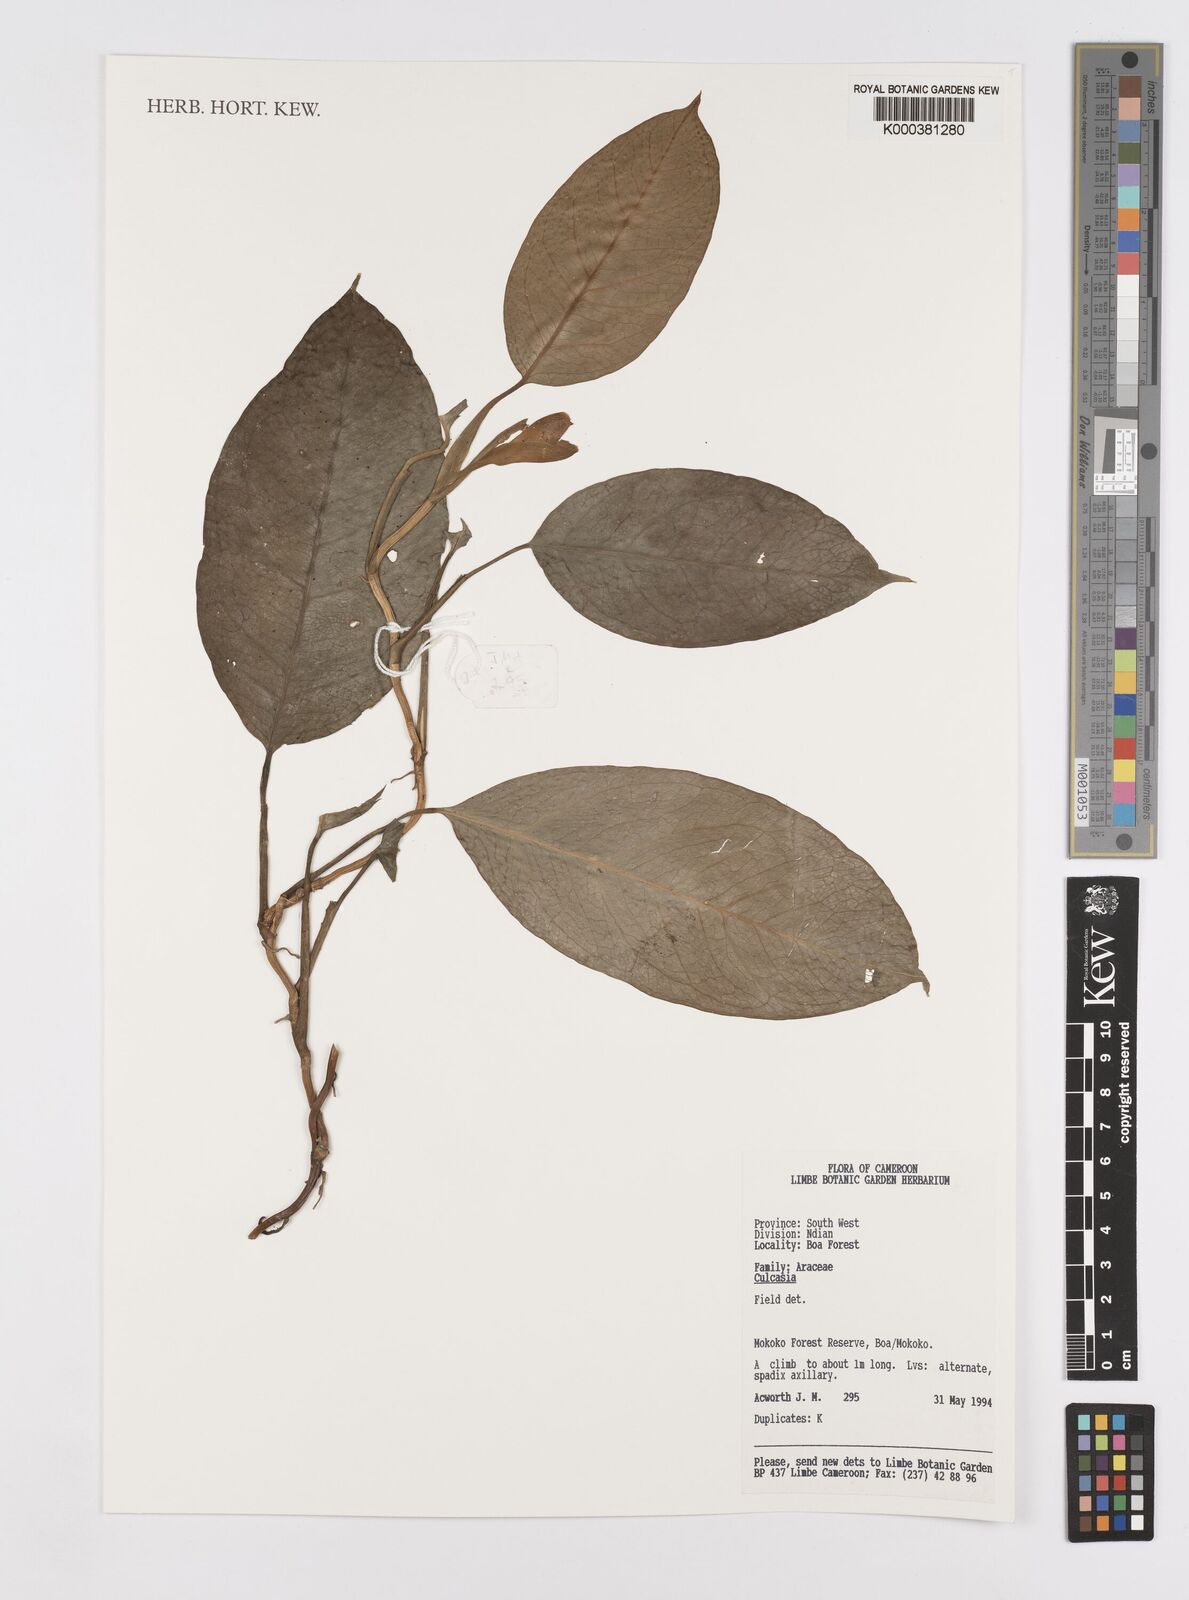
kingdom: Plantae
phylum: Tracheophyta
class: Liliopsida
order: Alismatales
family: Araceae
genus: Culcasia
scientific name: Culcasia
